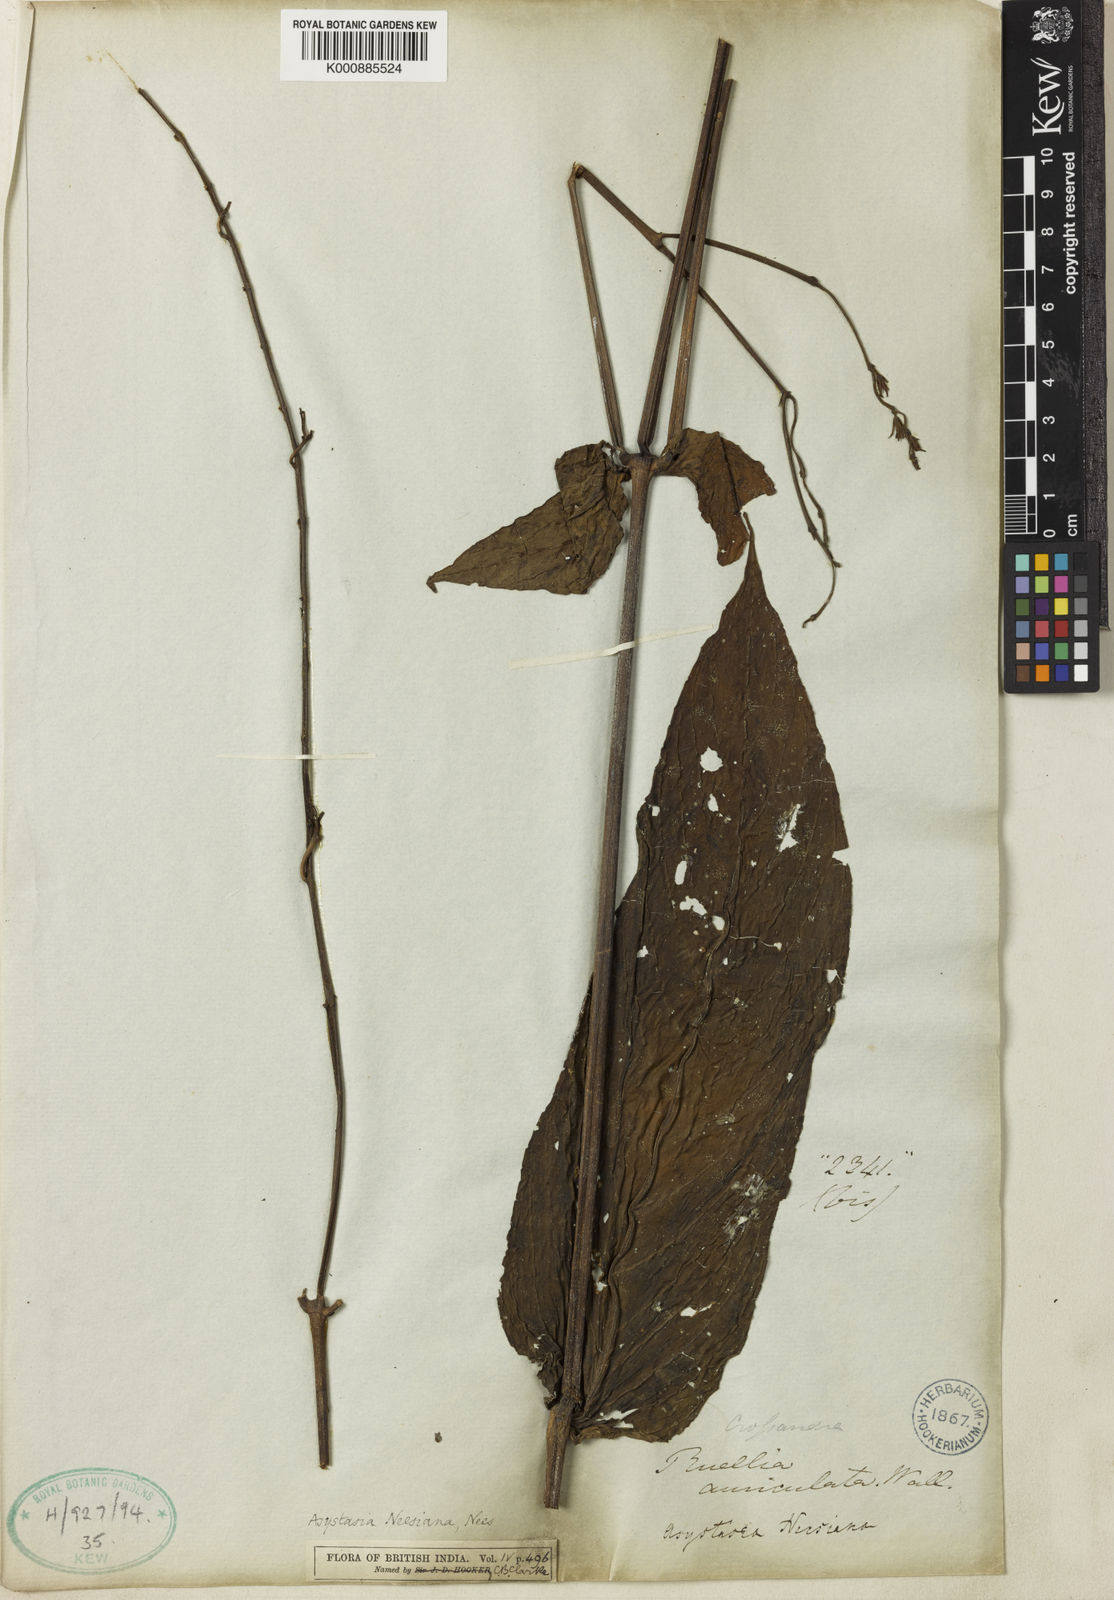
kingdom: Plantae
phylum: Tracheophyta
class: Magnoliopsida
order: Lamiales
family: Acanthaceae
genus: Mackaya
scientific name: Mackaya neesiana
